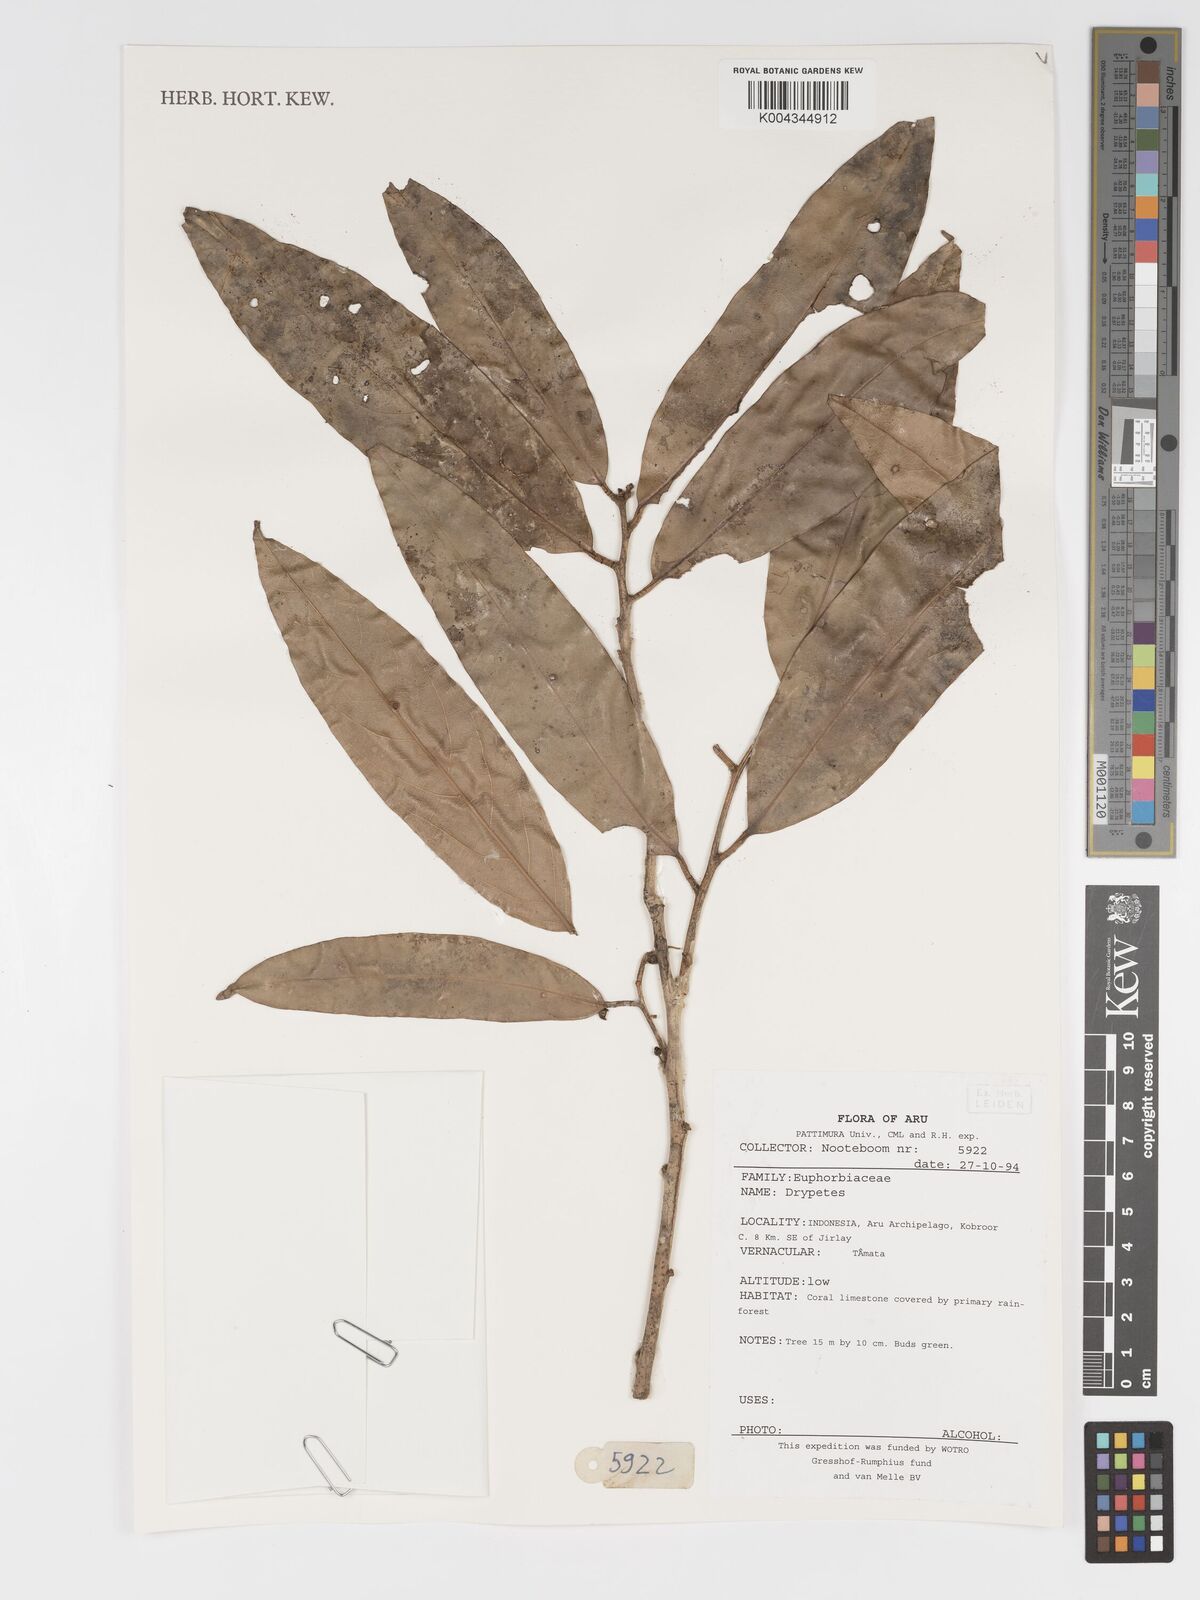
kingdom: Plantae
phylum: Tracheophyta
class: Magnoliopsida
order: Malpighiales
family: Putranjivaceae
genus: Drypetes
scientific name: Drypetes
